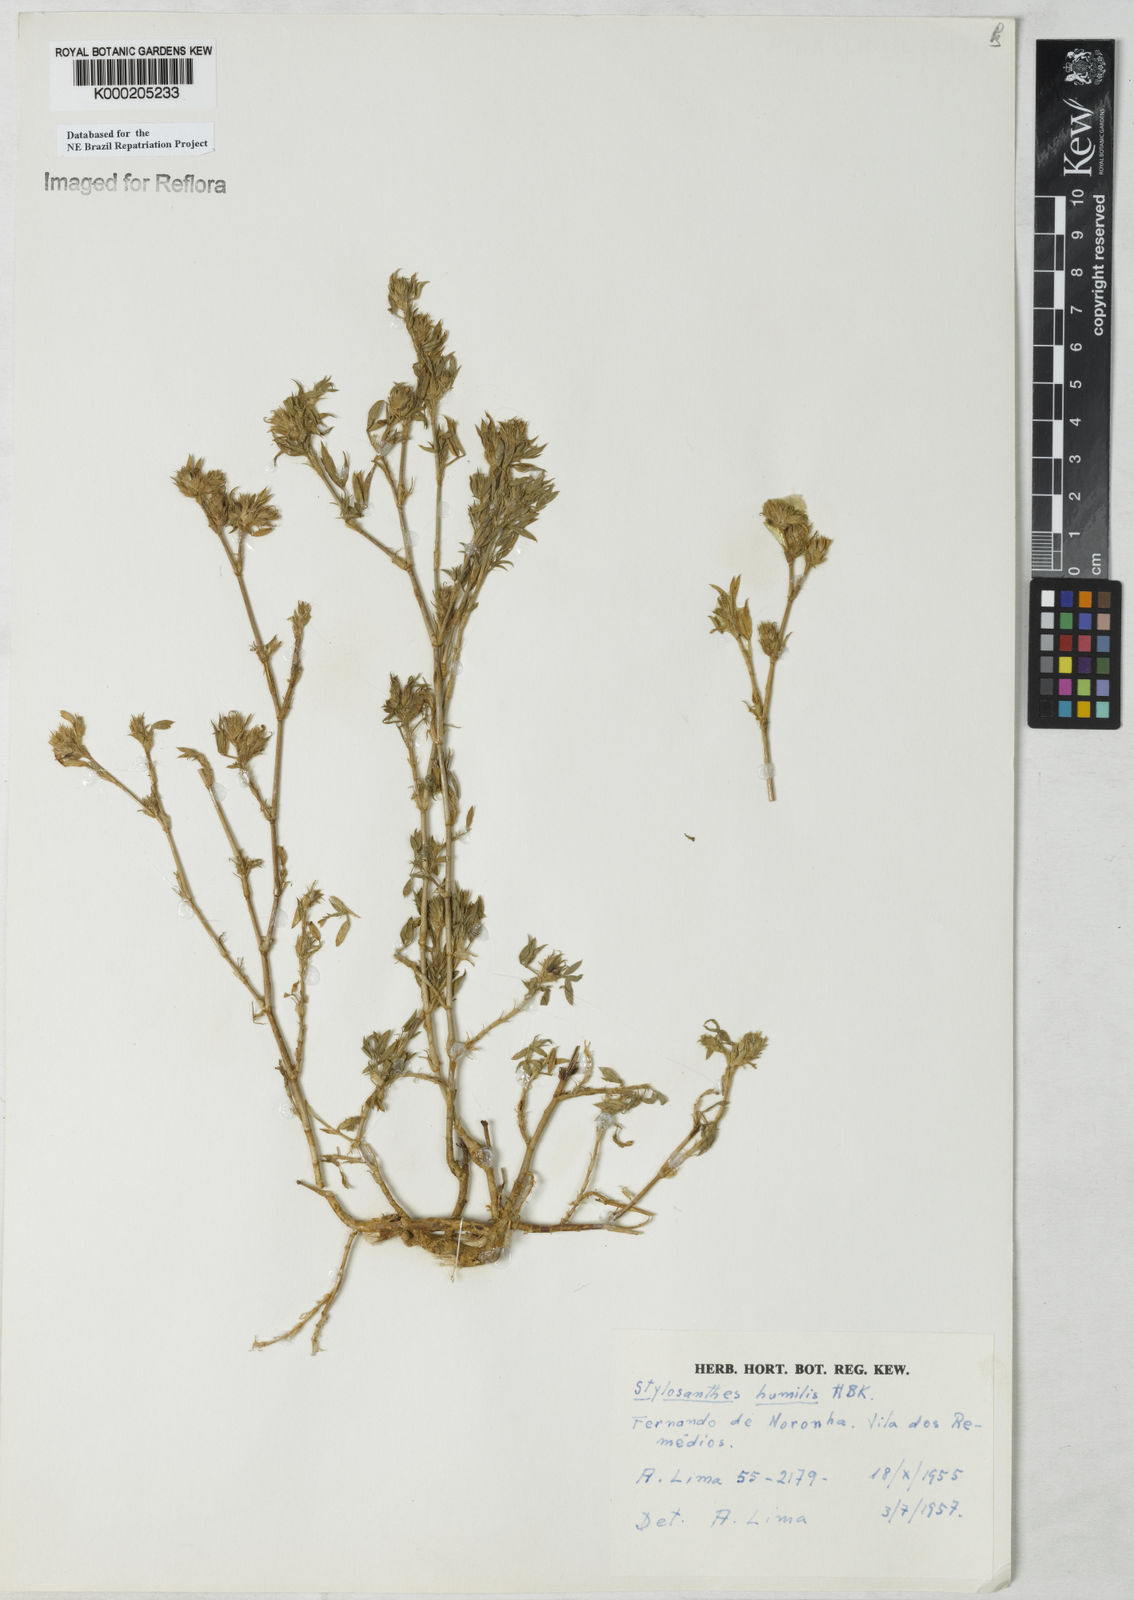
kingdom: Plantae
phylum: Tracheophyta
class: Magnoliopsida
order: Fabales
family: Fabaceae
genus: Stylosanthes
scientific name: Stylosanthes humilis
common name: Townsville stylo
